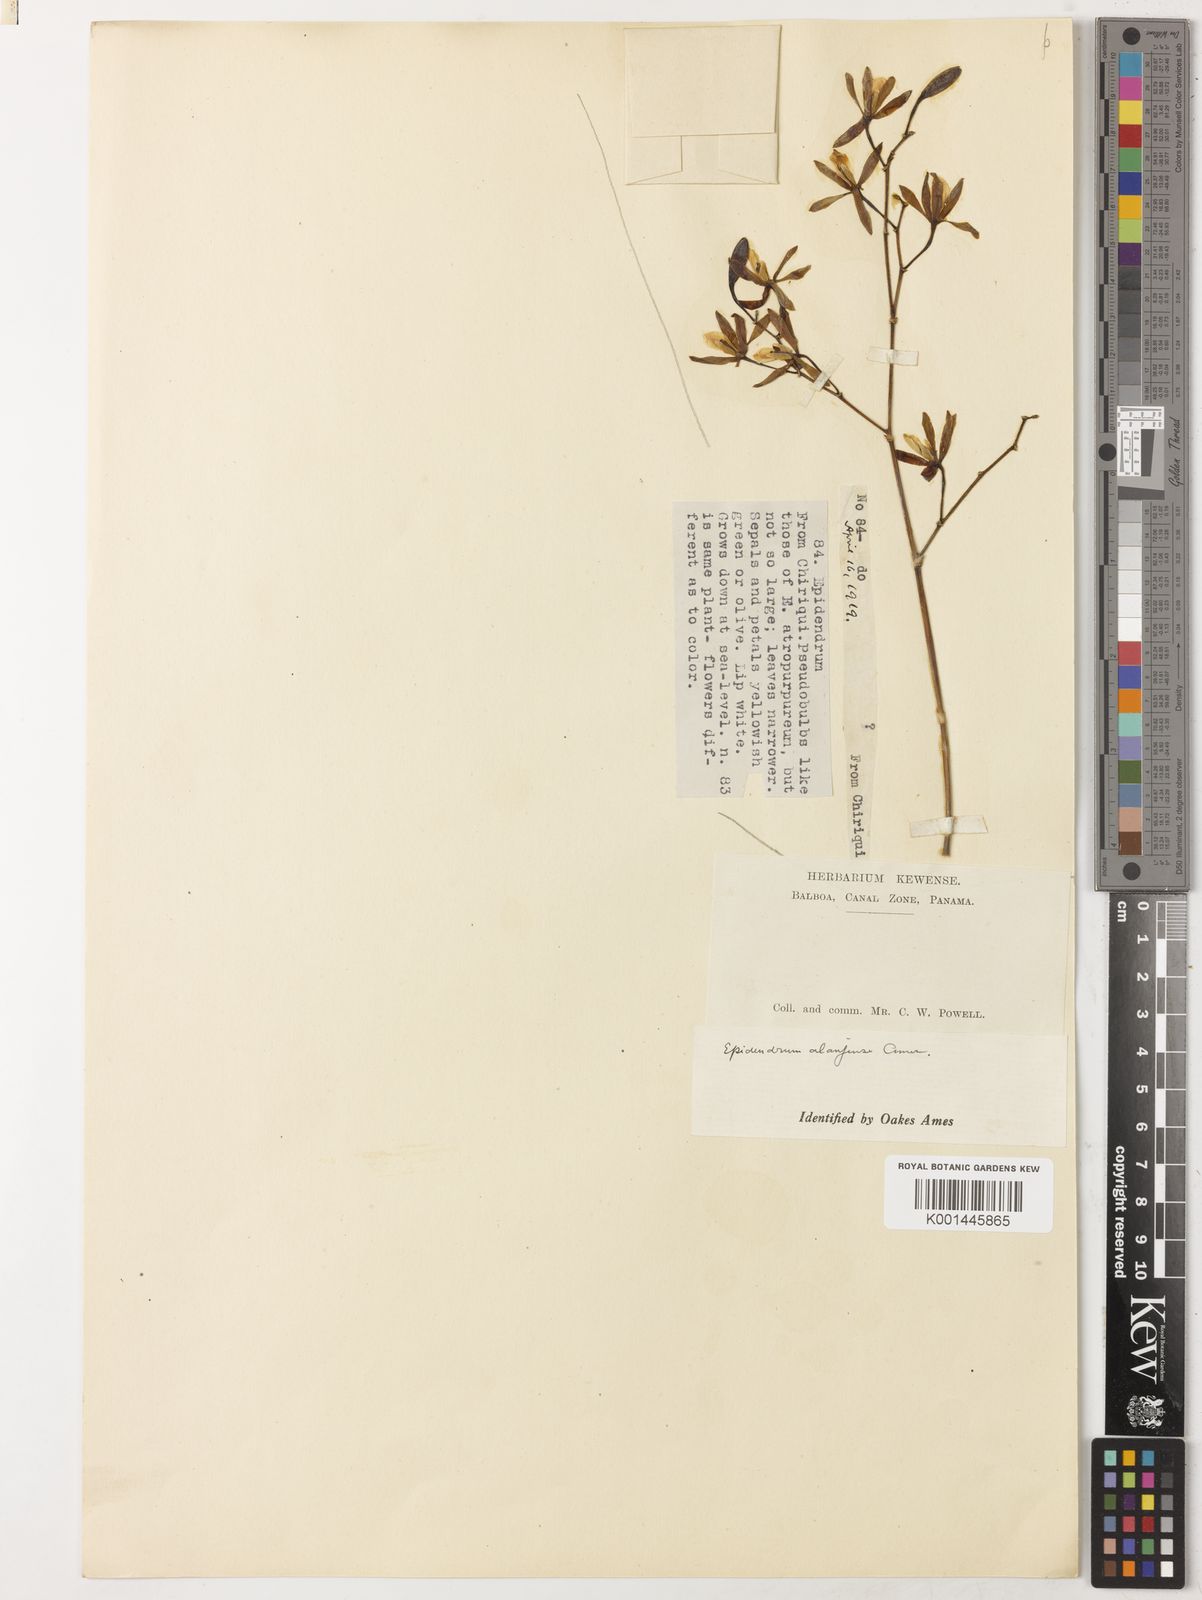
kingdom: Plantae
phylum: Tracheophyta
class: Liliopsida
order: Asparagales
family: Orchidaceae
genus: Encyclia
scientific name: Encyclia stellata
